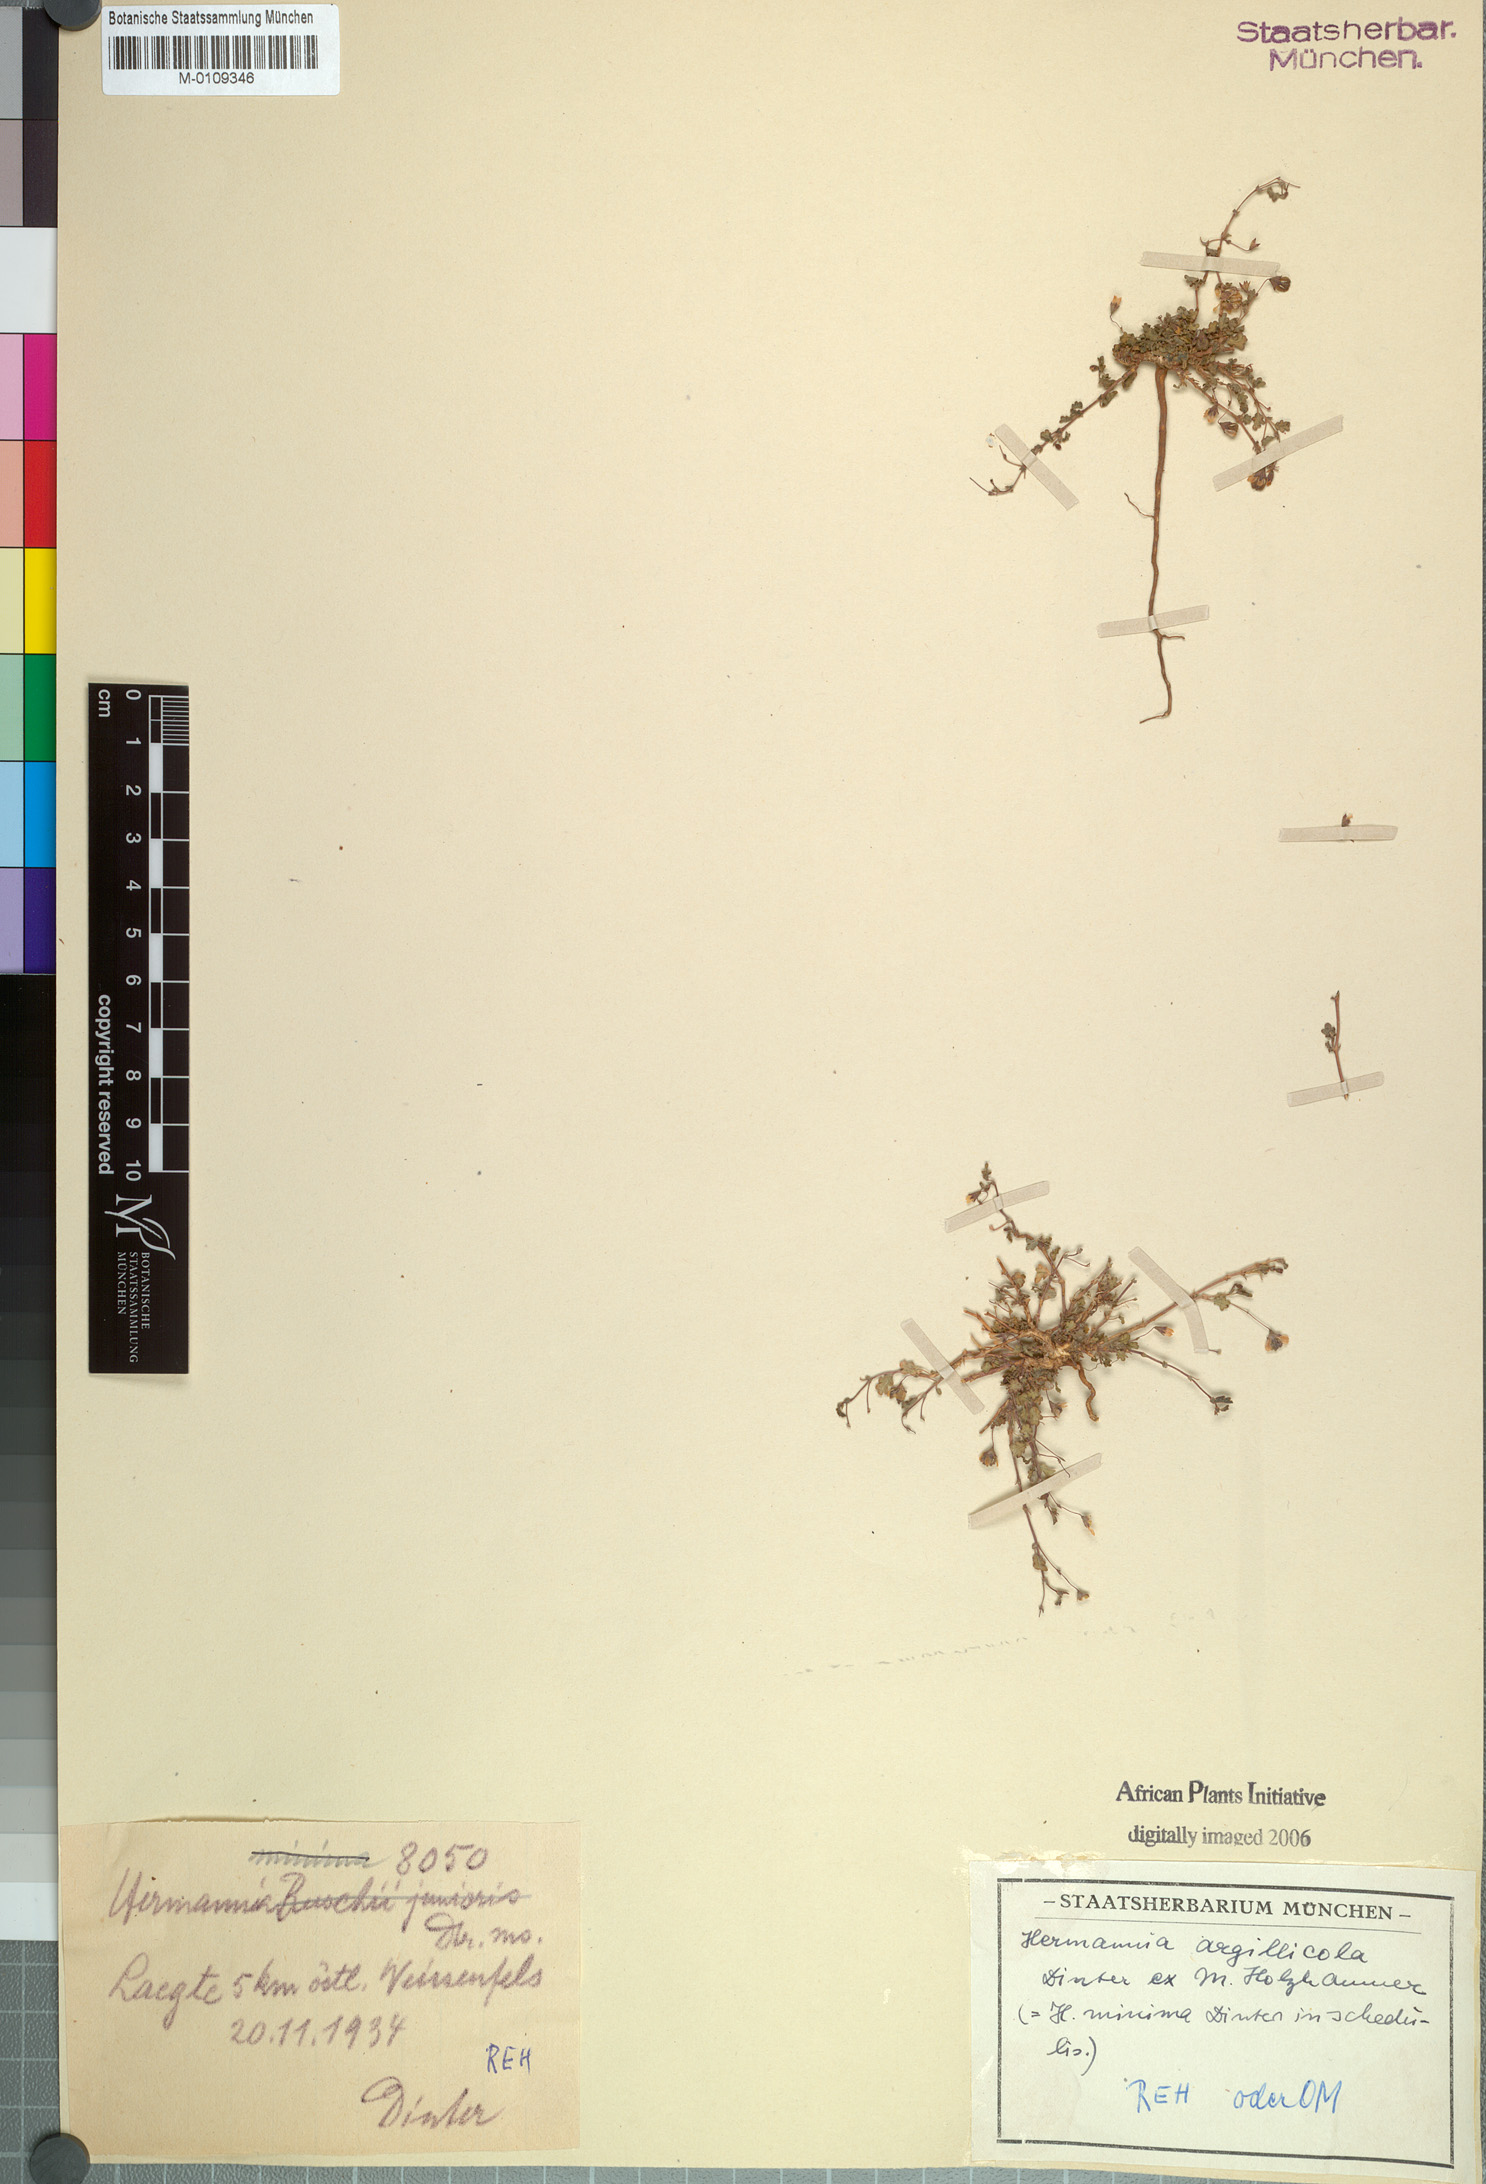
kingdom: Plantae
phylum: Tracheophyta
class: Magnoliopsida
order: Malvales
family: Malvaceae
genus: Hermannia
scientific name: Hermannia argillicola
